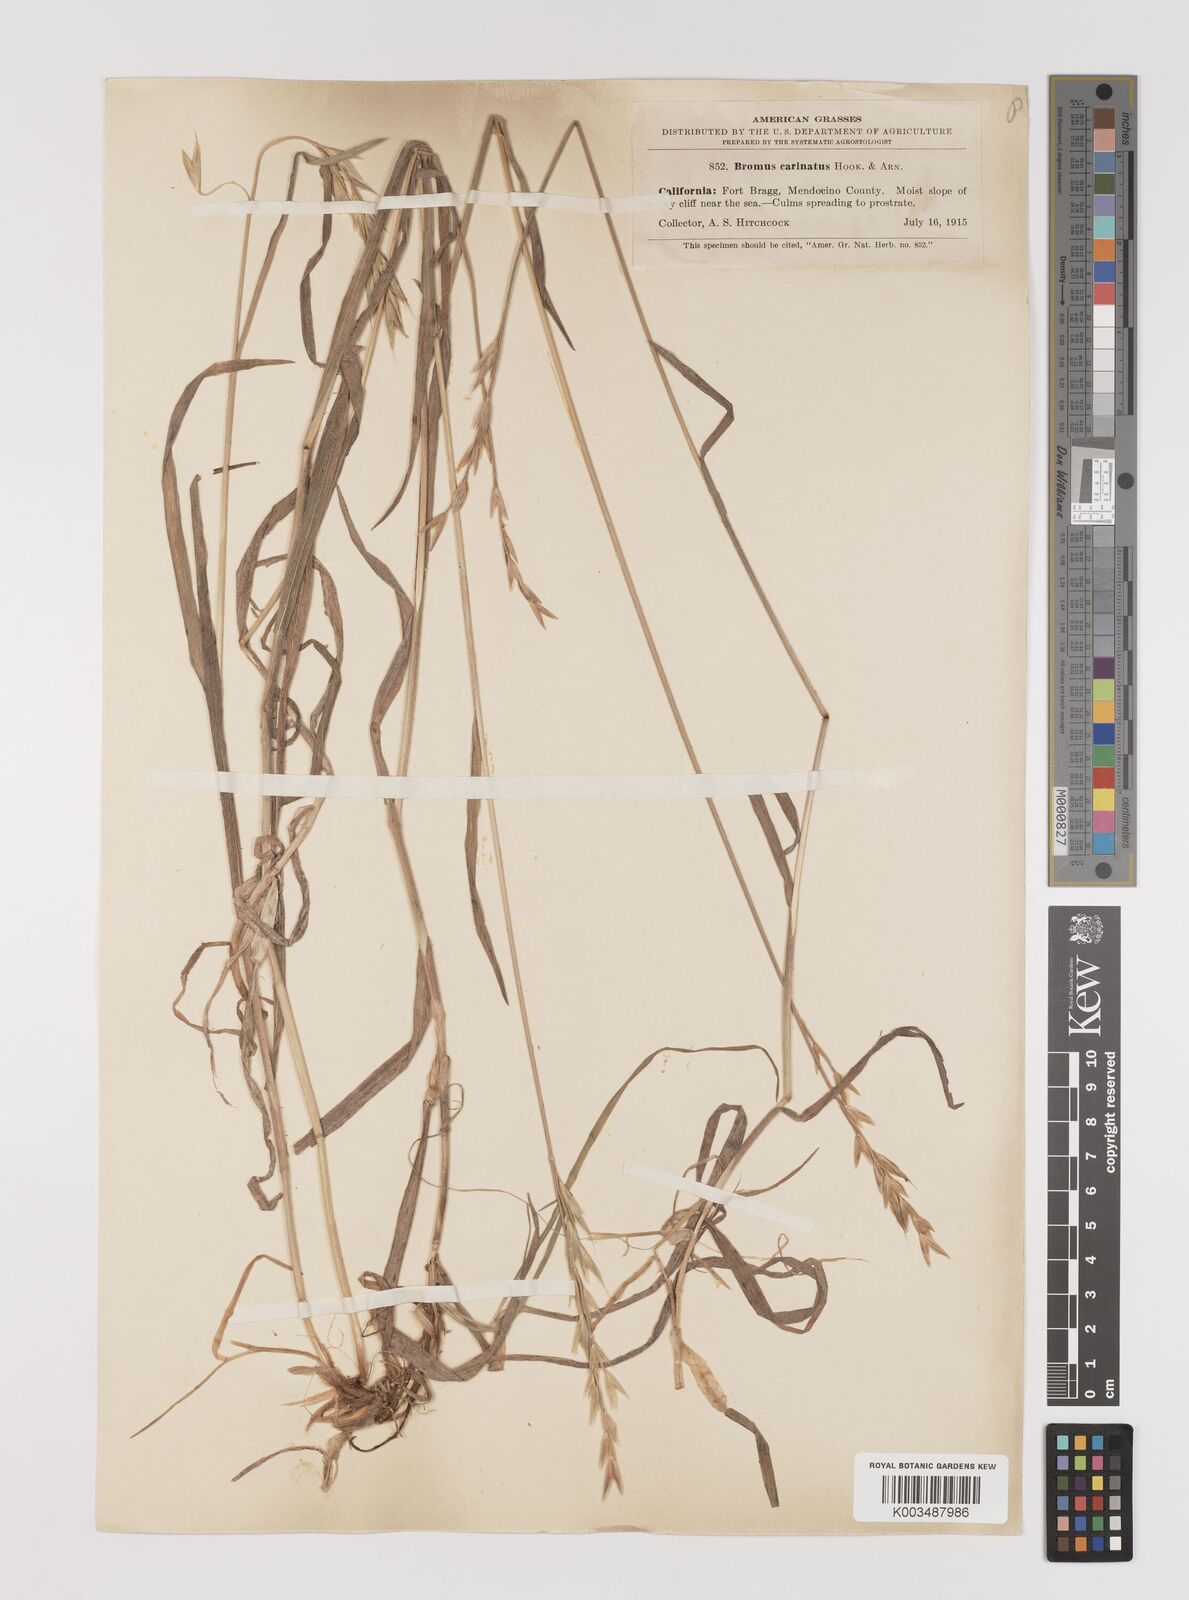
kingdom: Plantae
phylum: Tracheophyta
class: Liliopsida
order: Poales
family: Poaceae
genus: Bromus
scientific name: Bromus marginatus
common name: Western brome
